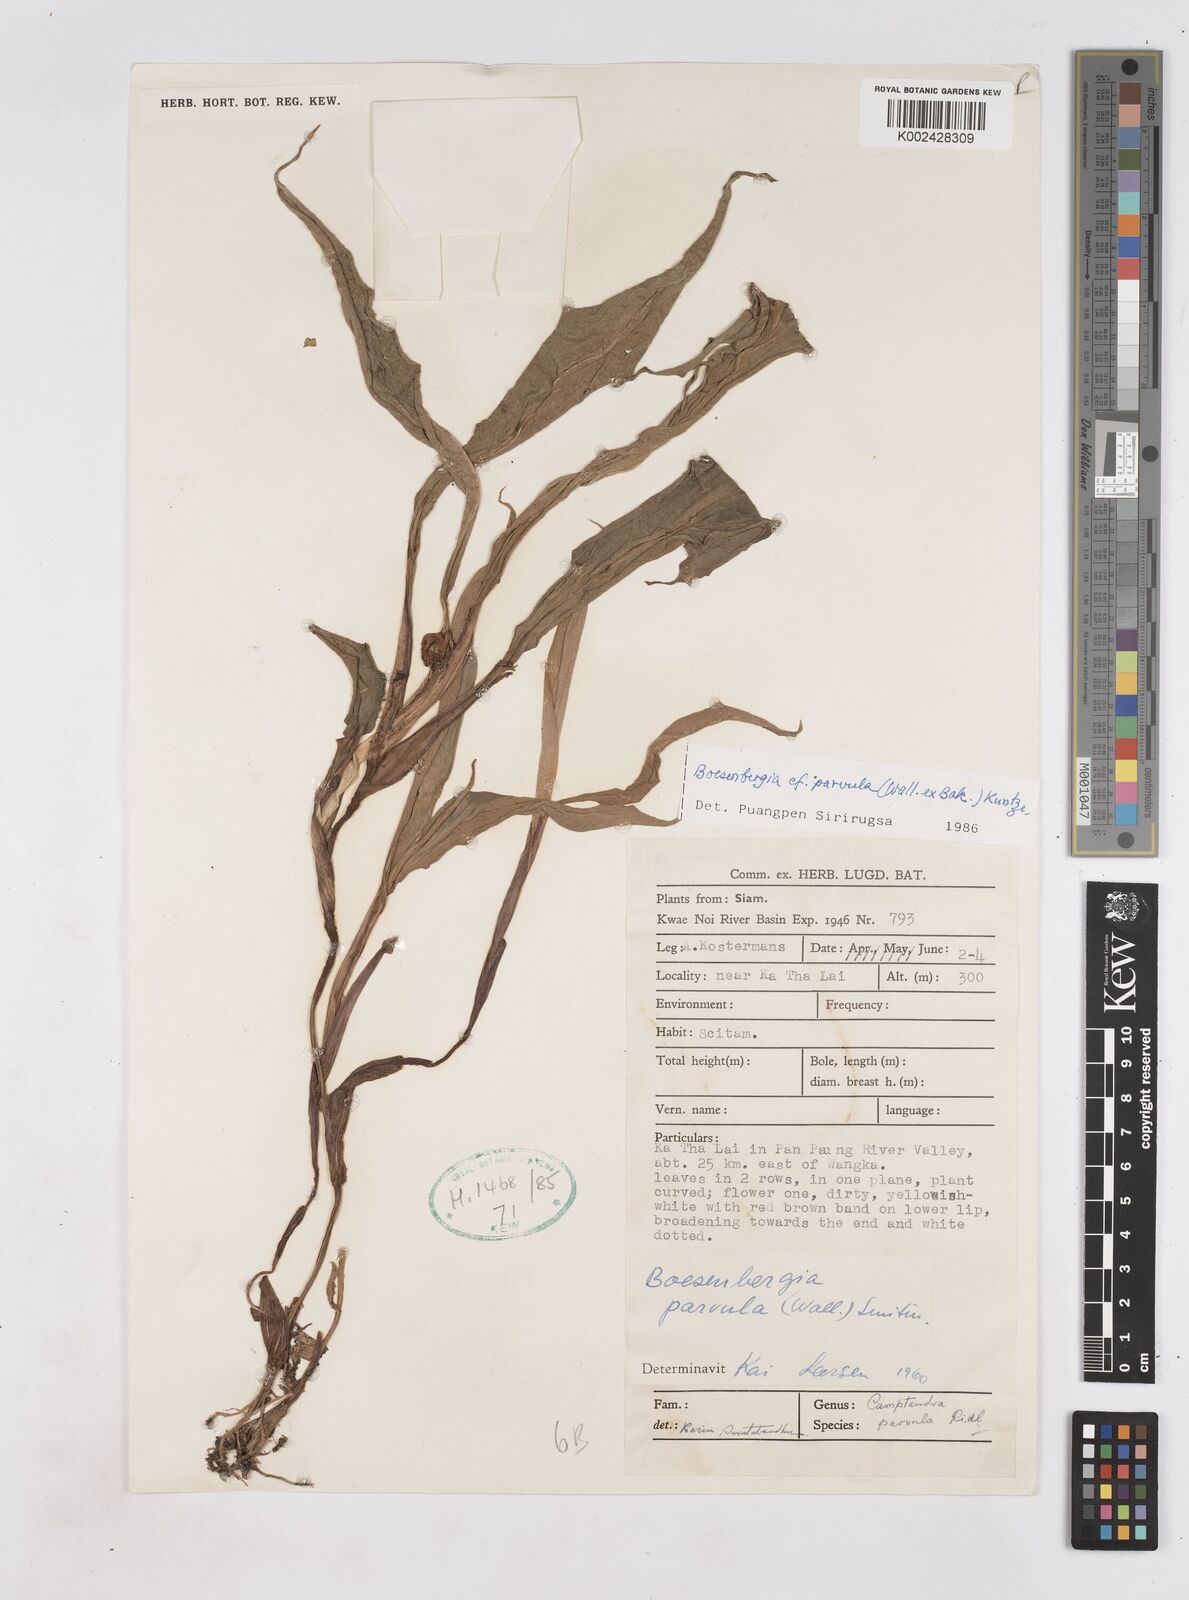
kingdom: Plantae
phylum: Tracheophyta
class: Liliopsida
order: Zingiberales
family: Zingiberaceae
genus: Boesenbergia
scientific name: Boesenbergia parvula
